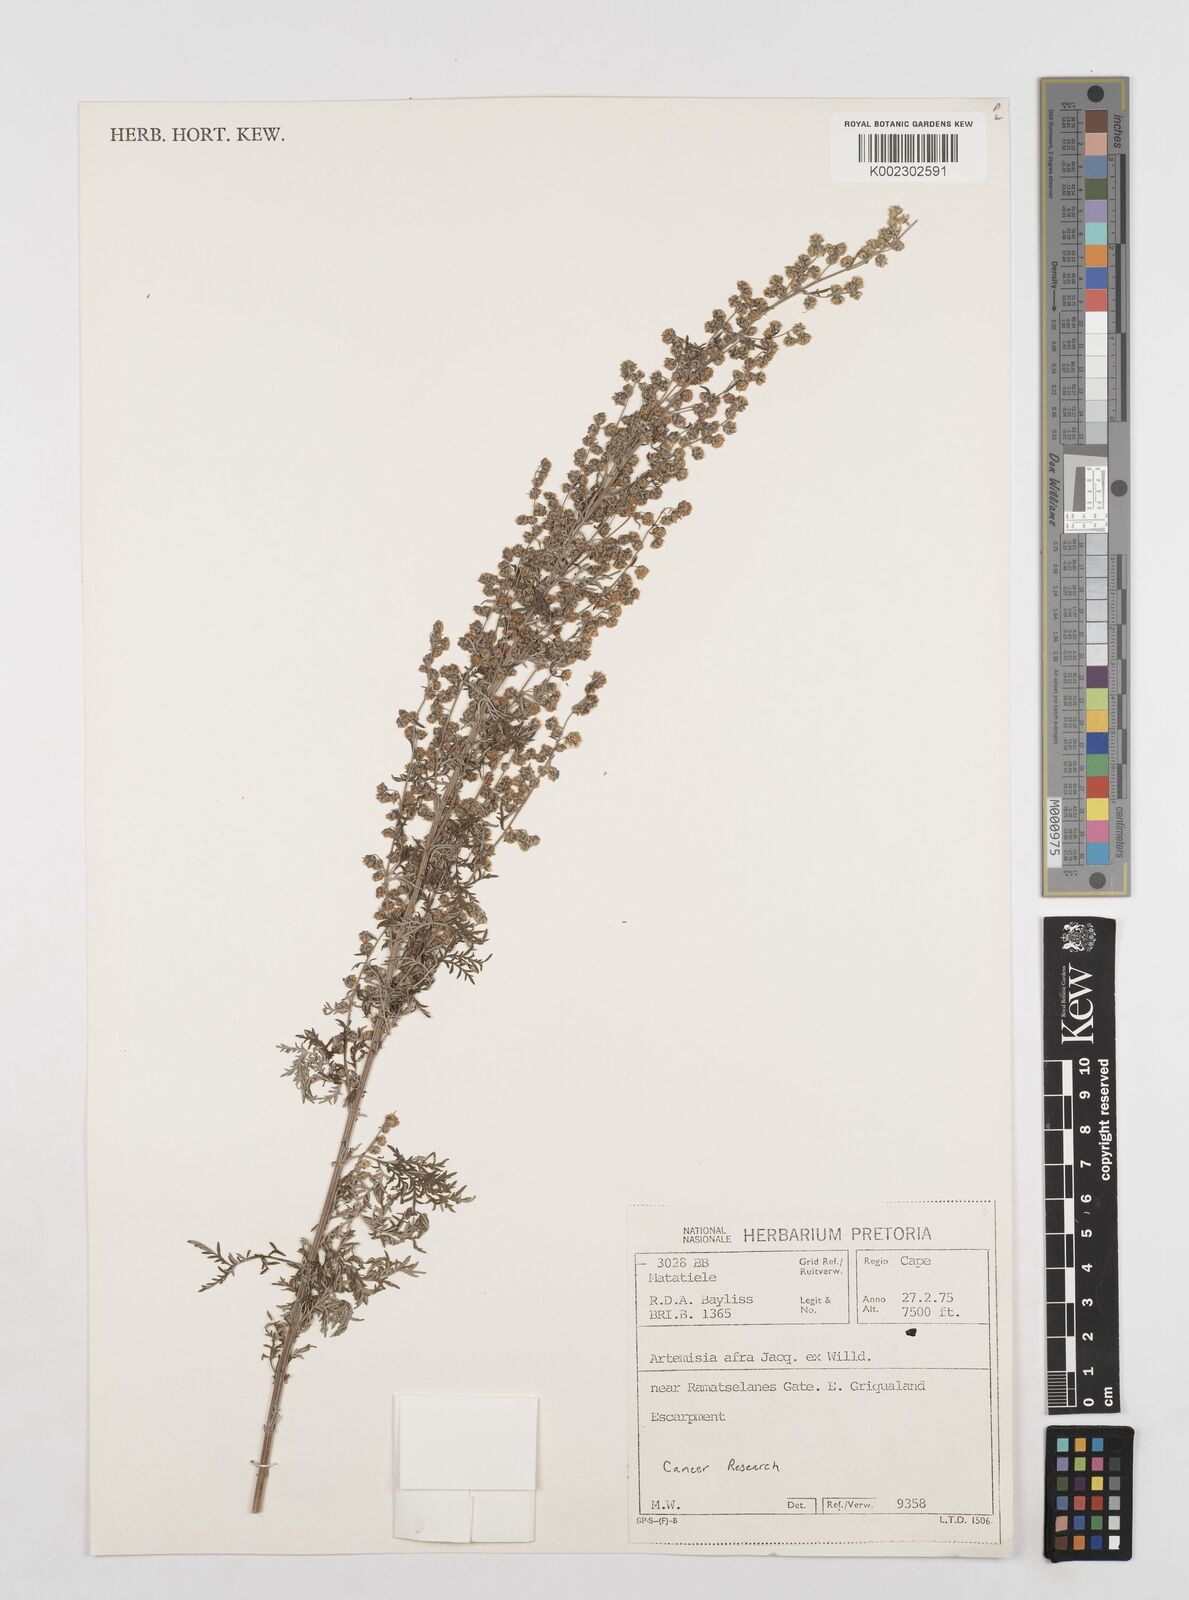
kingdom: Plantae
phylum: Tracheophyta
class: Magnoliopsida
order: Asterales
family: Asteraceae
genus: Artemisia
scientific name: Artemisia afra
